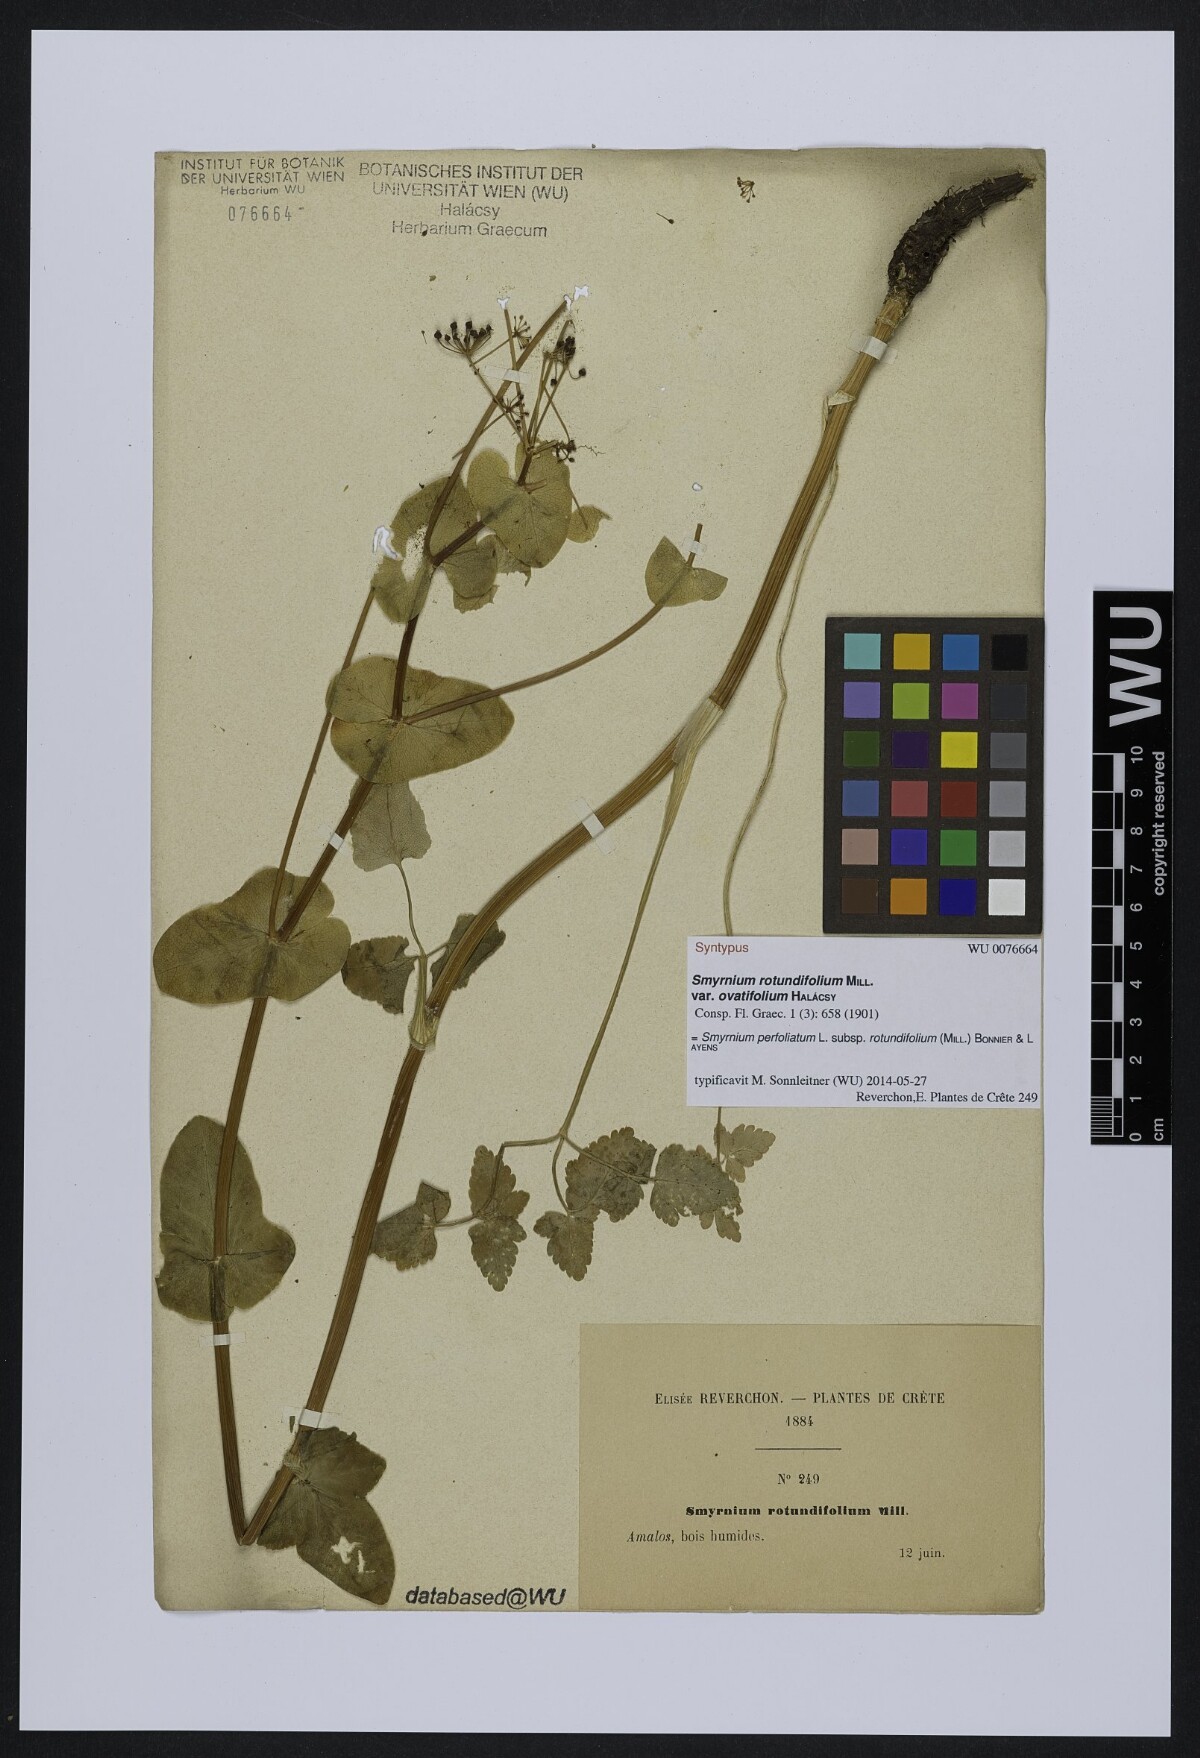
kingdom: Plantae
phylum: Tracheophyta
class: Magnoliopsida
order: Apiales
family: Apiaceae
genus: Smyrnium
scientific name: Smyrnium perfoliatum
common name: Perfoliate alexanders
